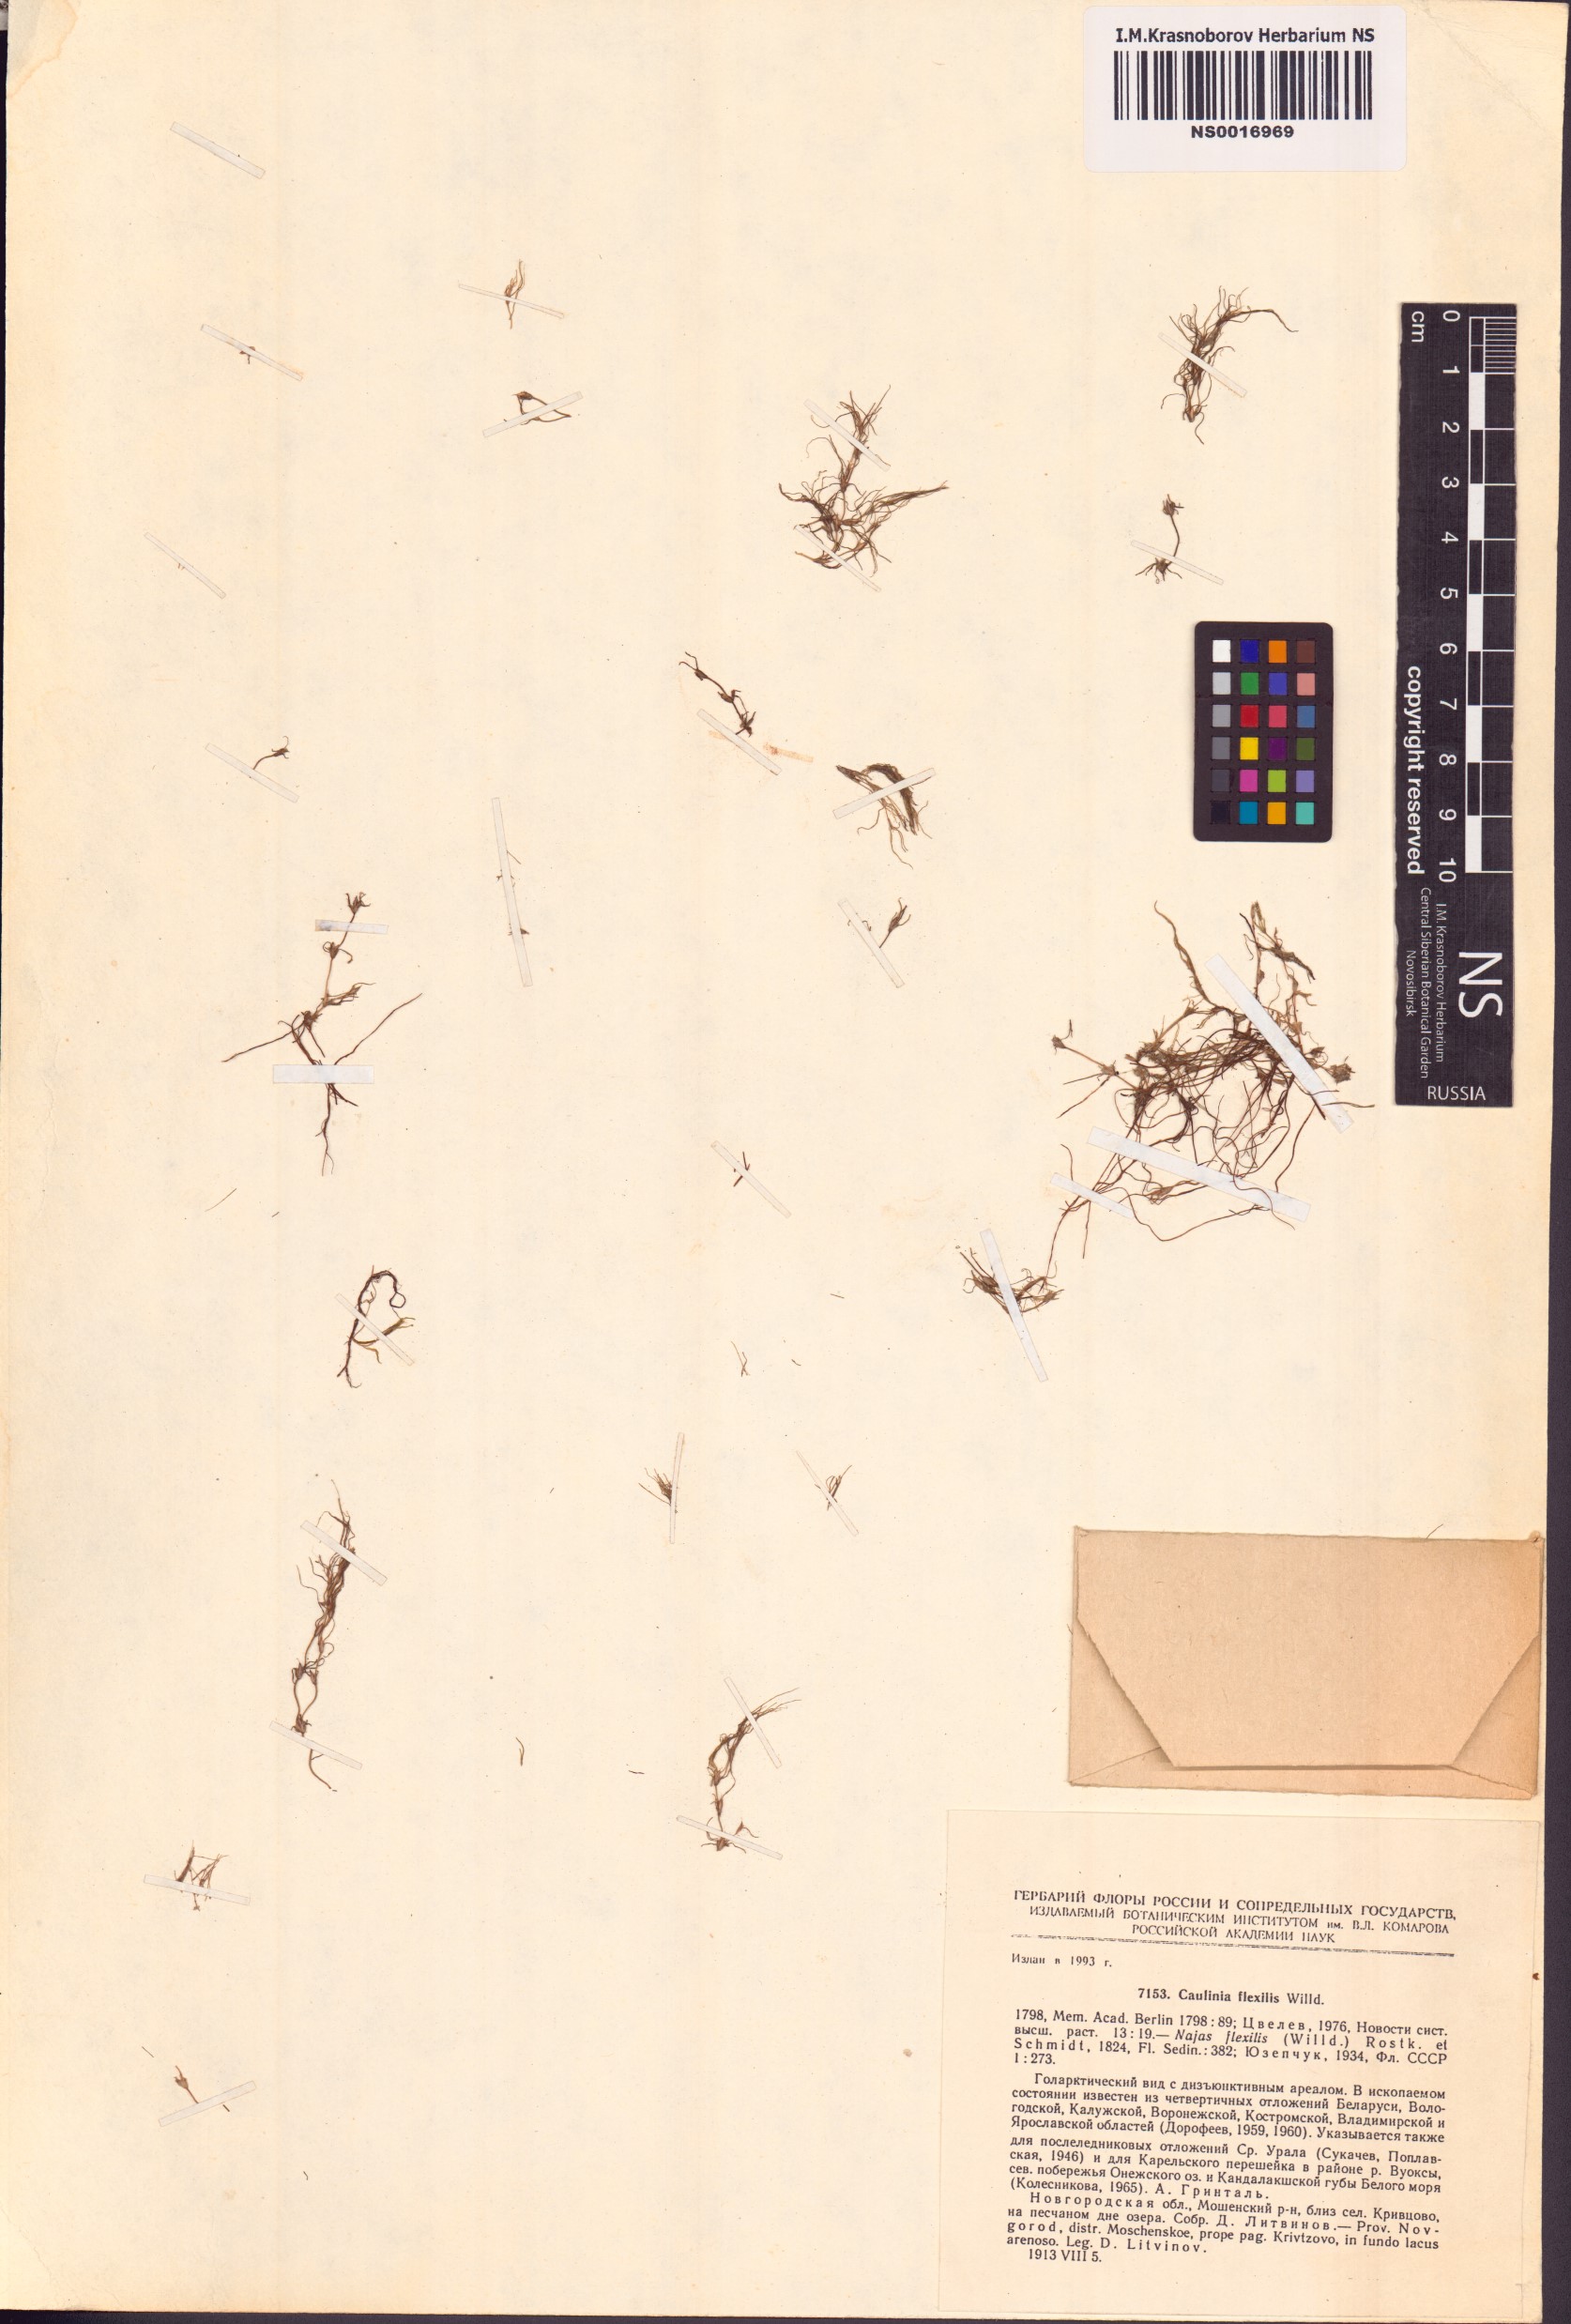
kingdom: Plantae
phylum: Tracheophyta
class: Liliopsida
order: Alismatales
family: Hydrocharitaceae
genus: Najas
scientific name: Najas flexilis
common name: Slender naiad
